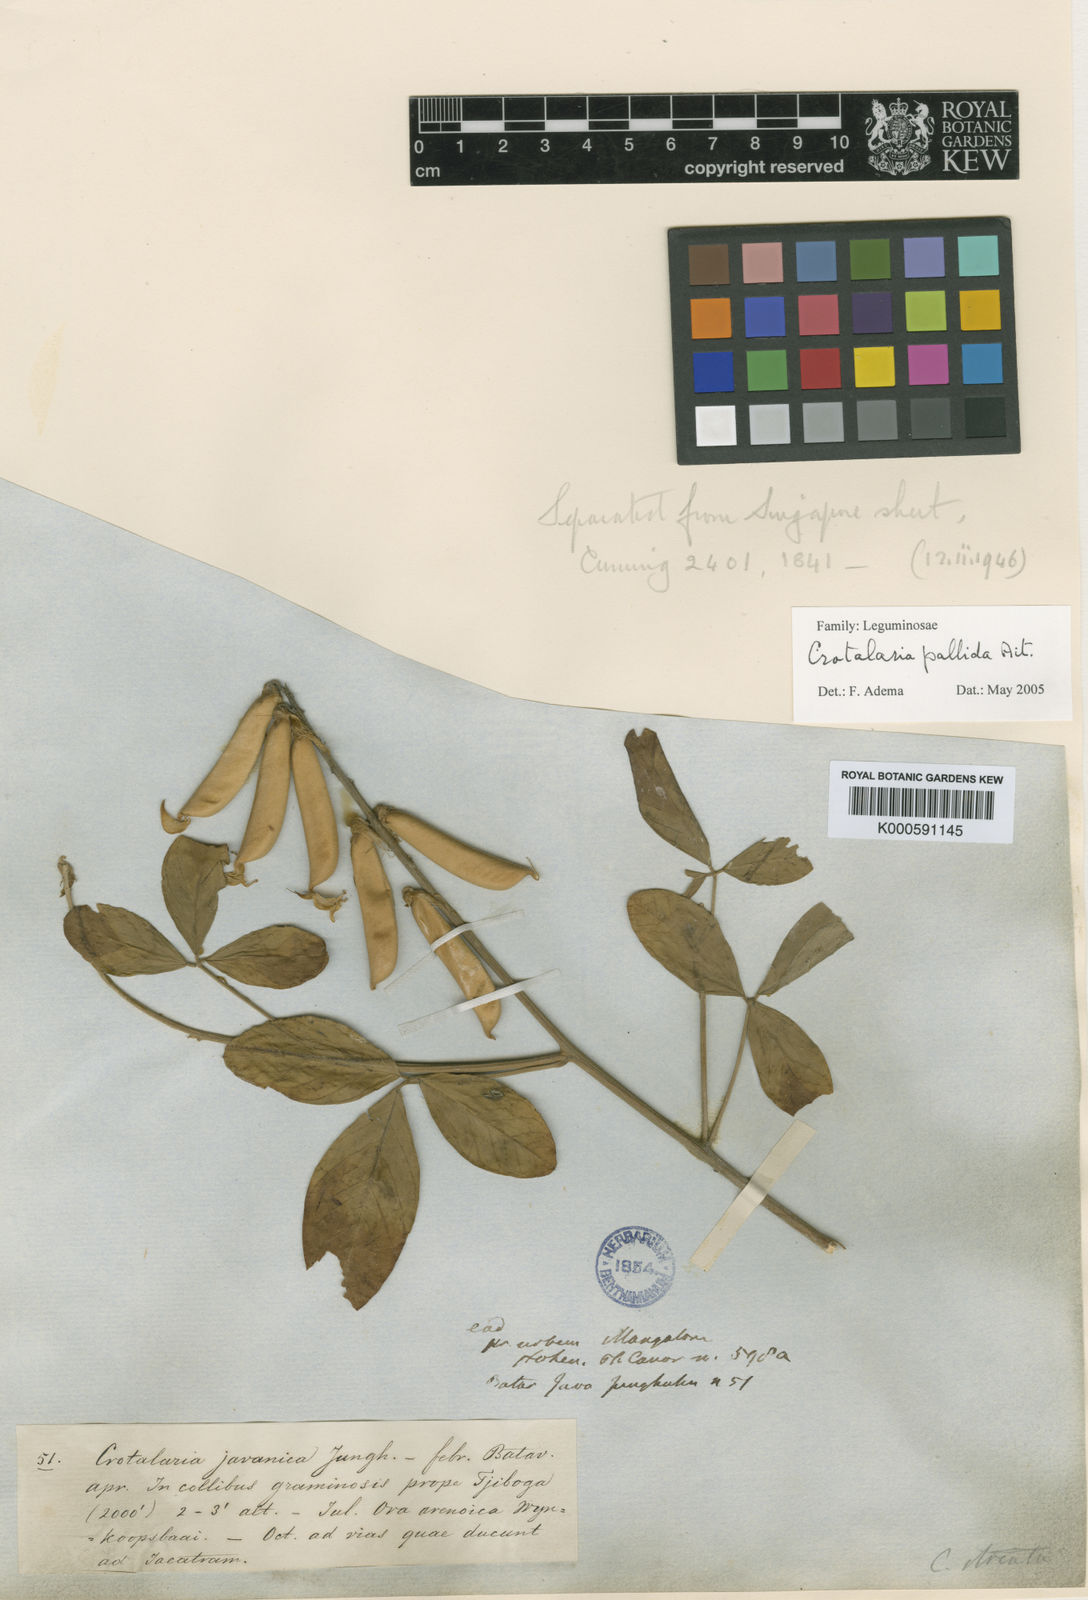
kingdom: Plantae
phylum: Tracheophyta
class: Magnoliopsida
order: Fabales
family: Fabaceae
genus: Crotalaria
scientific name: Crotalaria pallida
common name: Smooth rattlebox
